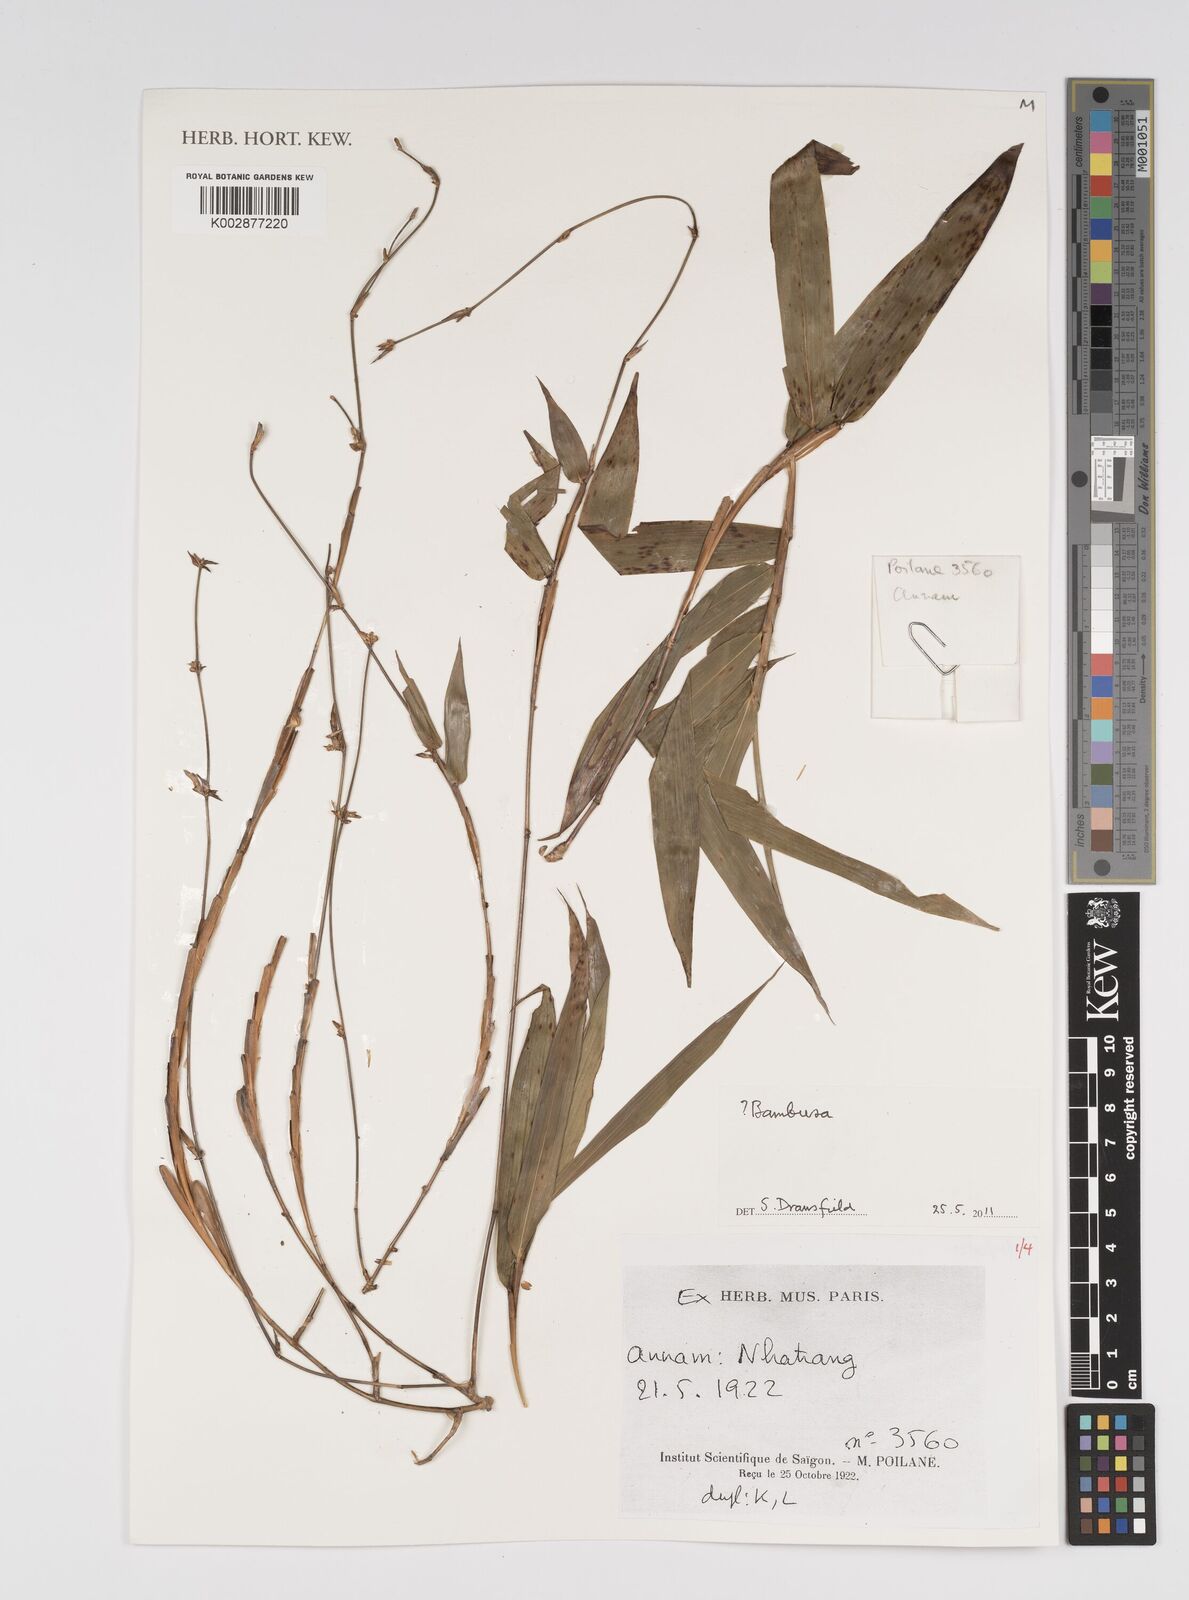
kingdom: Plantae
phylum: Tracheophyta
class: Liliopsida
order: Poales
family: Poaceae
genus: Bambusa
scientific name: Bambusa
